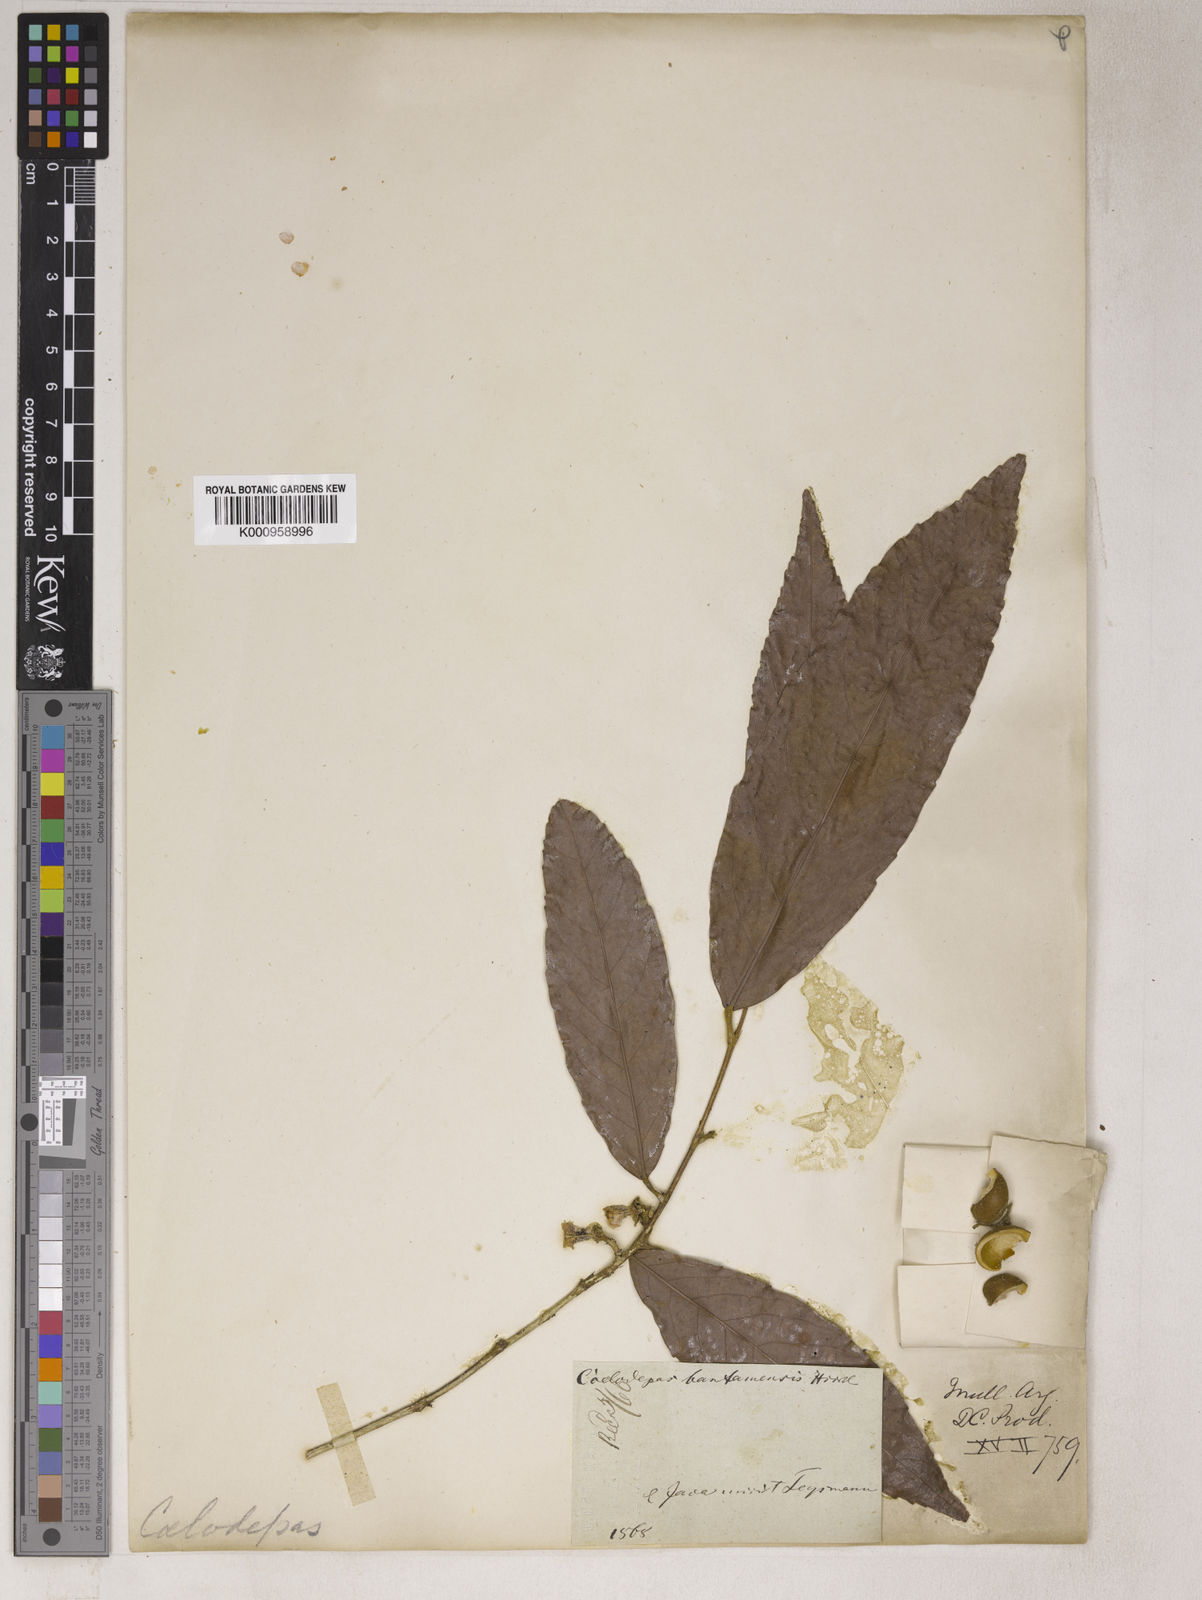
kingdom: Plantae
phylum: Tracheophyta
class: Magnoliopsida
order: Malpighiales
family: Euphorbiaceae
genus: Koilodepas
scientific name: Koilodepas bantamense
